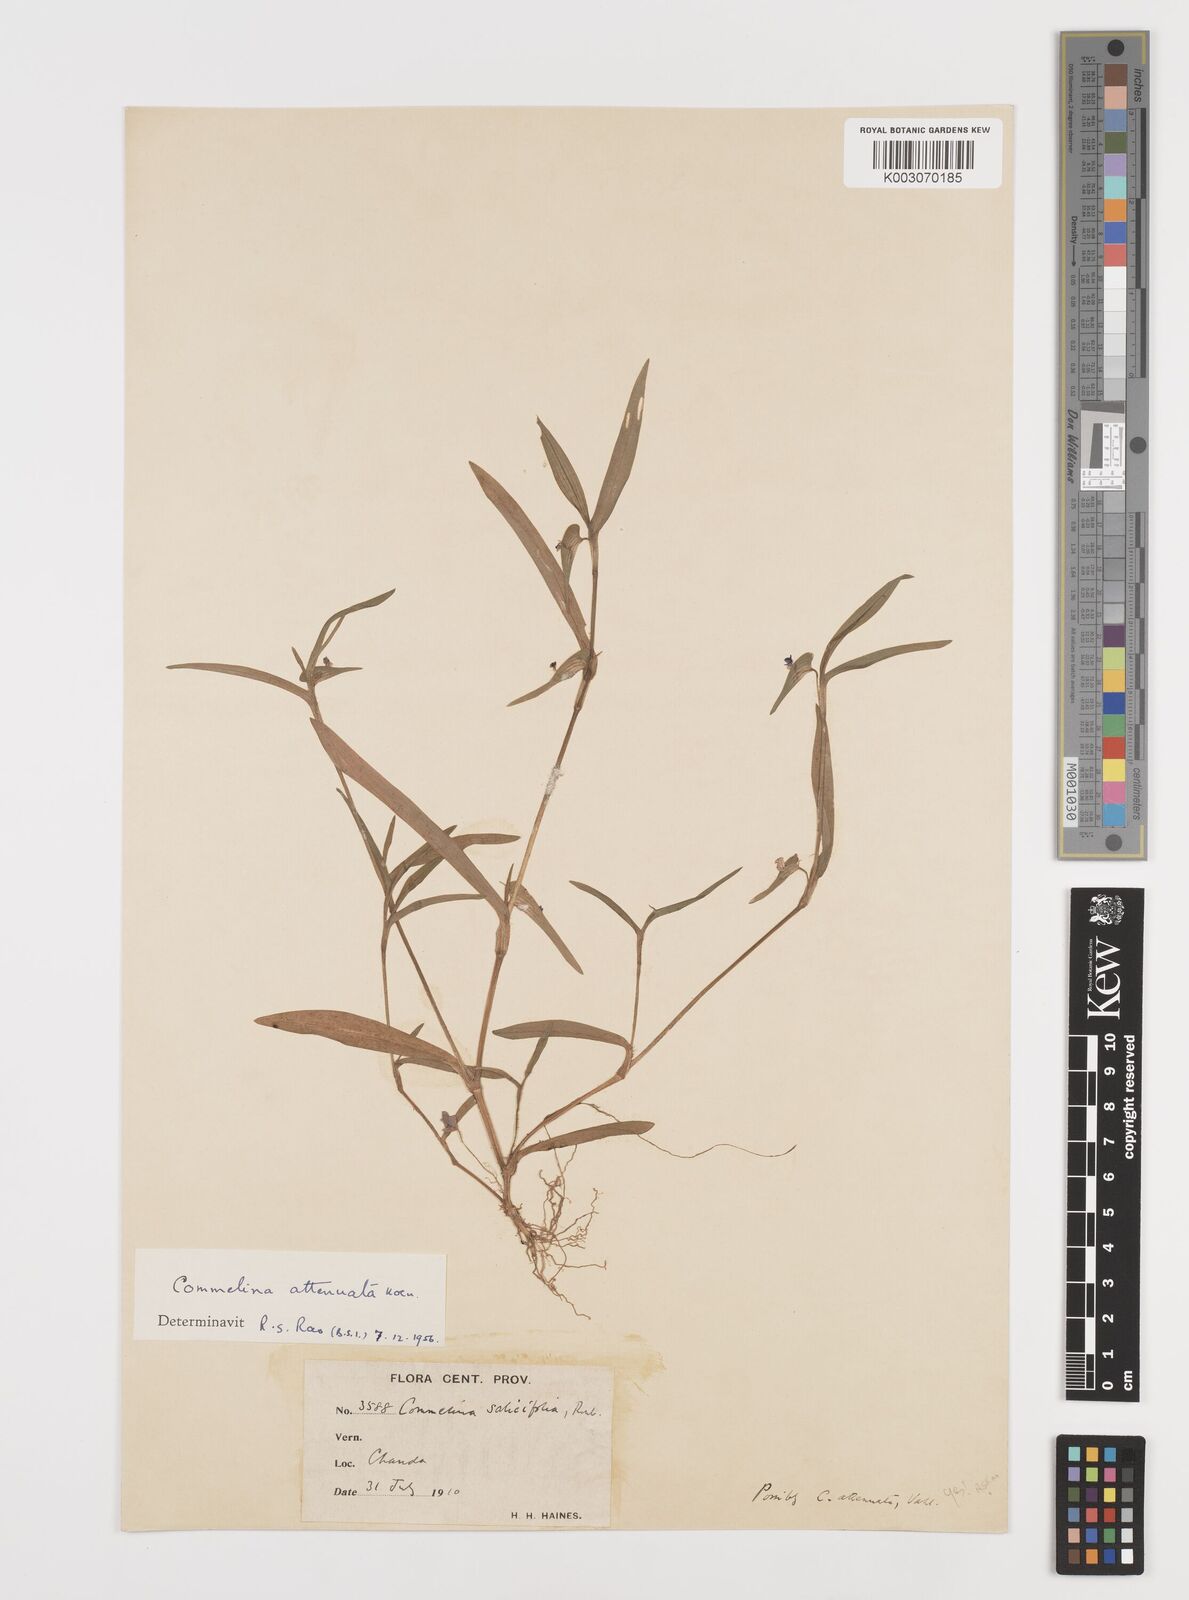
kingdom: Plantae
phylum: Tracheophyta
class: Liliopsida
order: Commelinales
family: Commelinaceae
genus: Commelina
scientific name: Commelina attenuata
